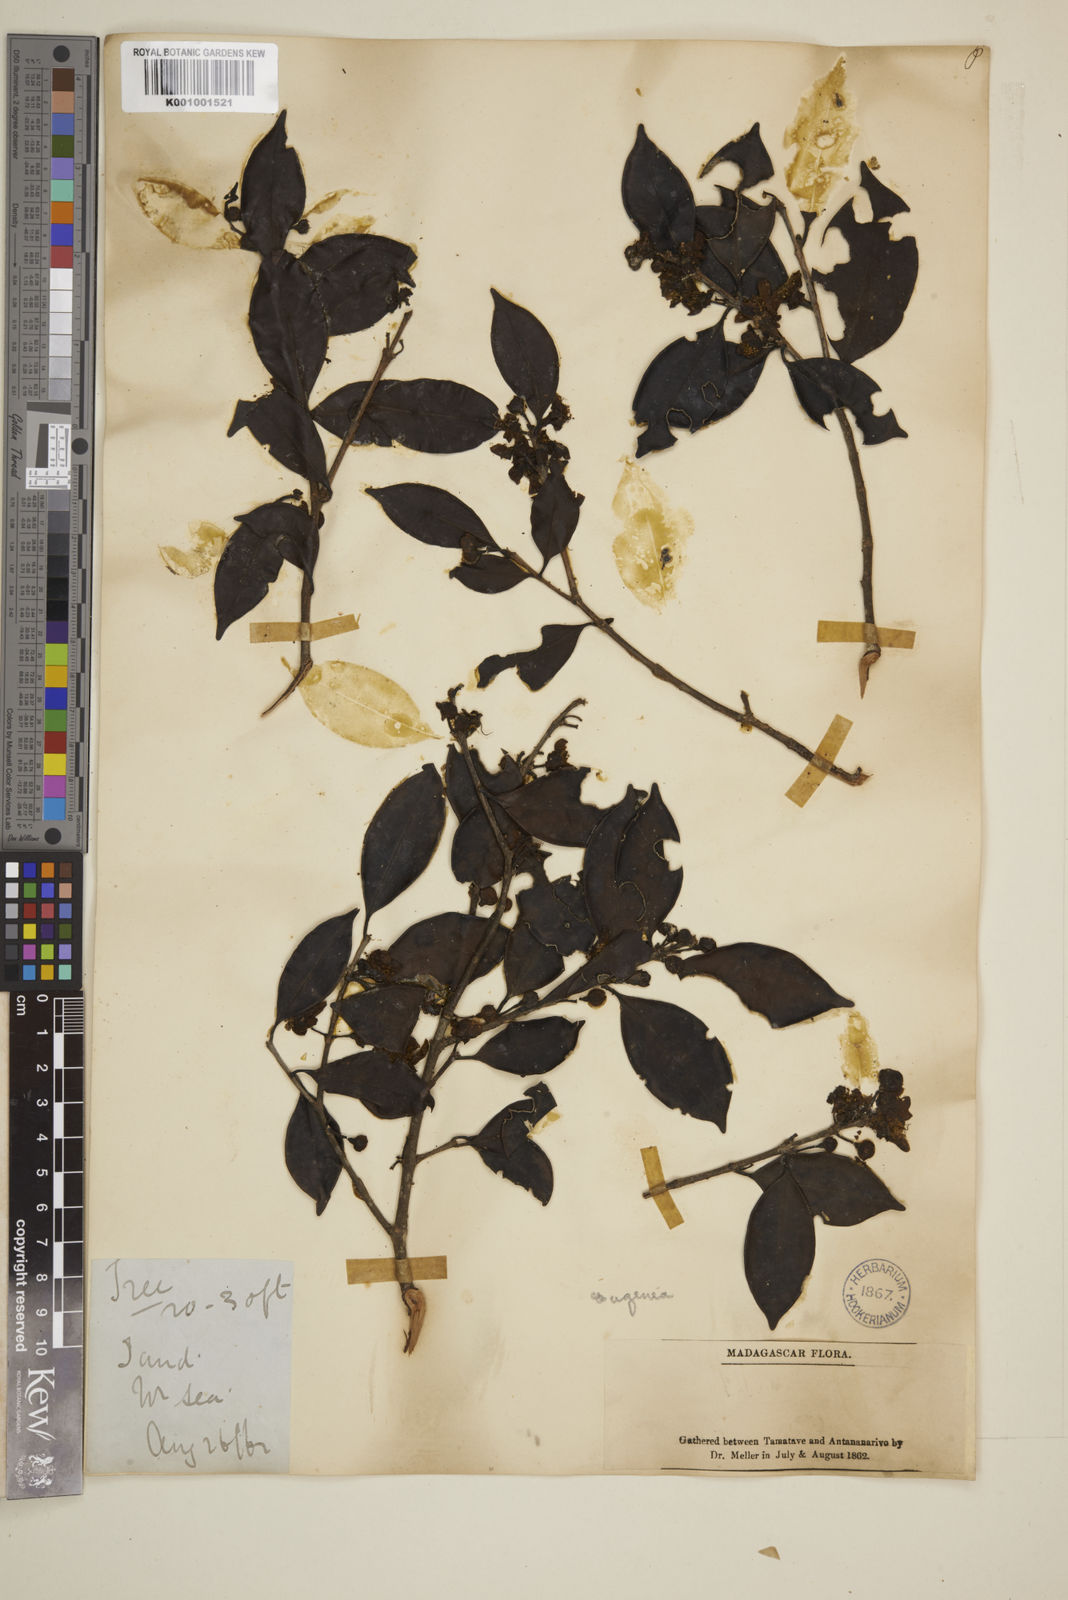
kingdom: Plantae
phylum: Tracheophyta
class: Magnoliopsida
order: Myrtales
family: Myrtaceae
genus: Eugenia
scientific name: Eugenia
